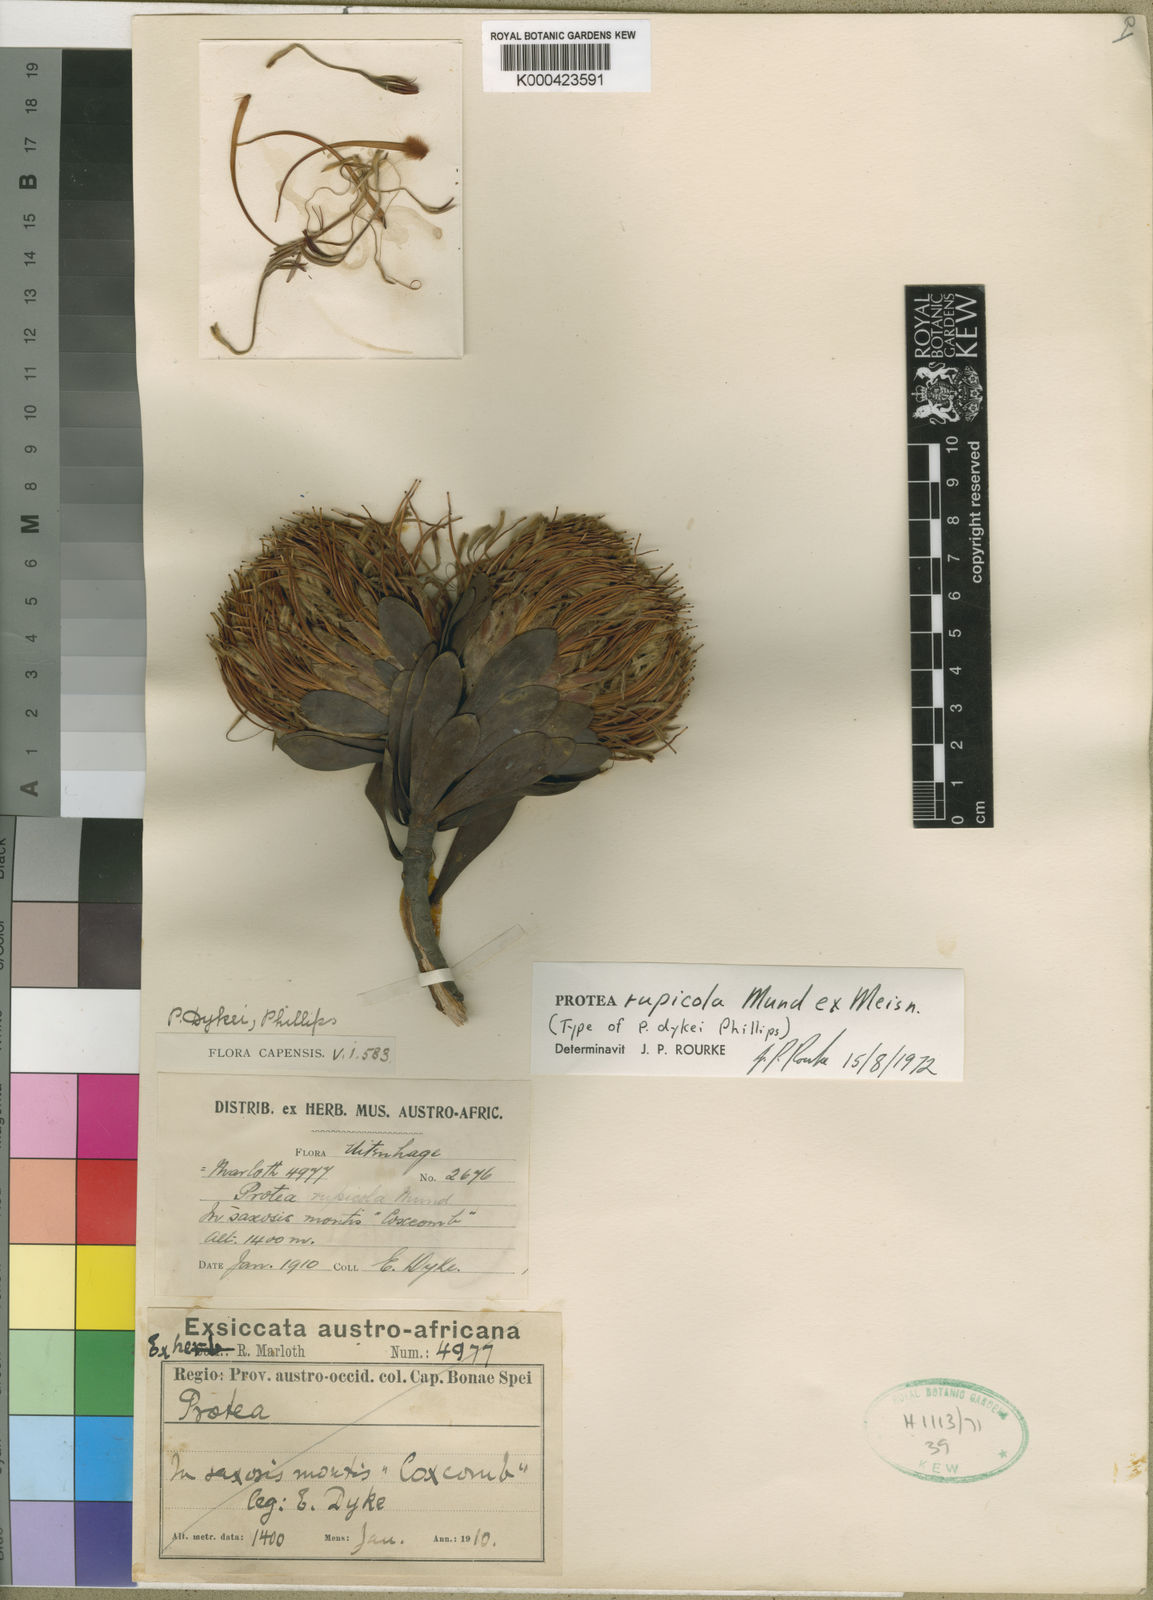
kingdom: Plantae
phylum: Tracheophyta
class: Magnoliopsida
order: Proteales
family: Proteaceae
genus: Protea
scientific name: Protea rupicola
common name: Krantz protea
